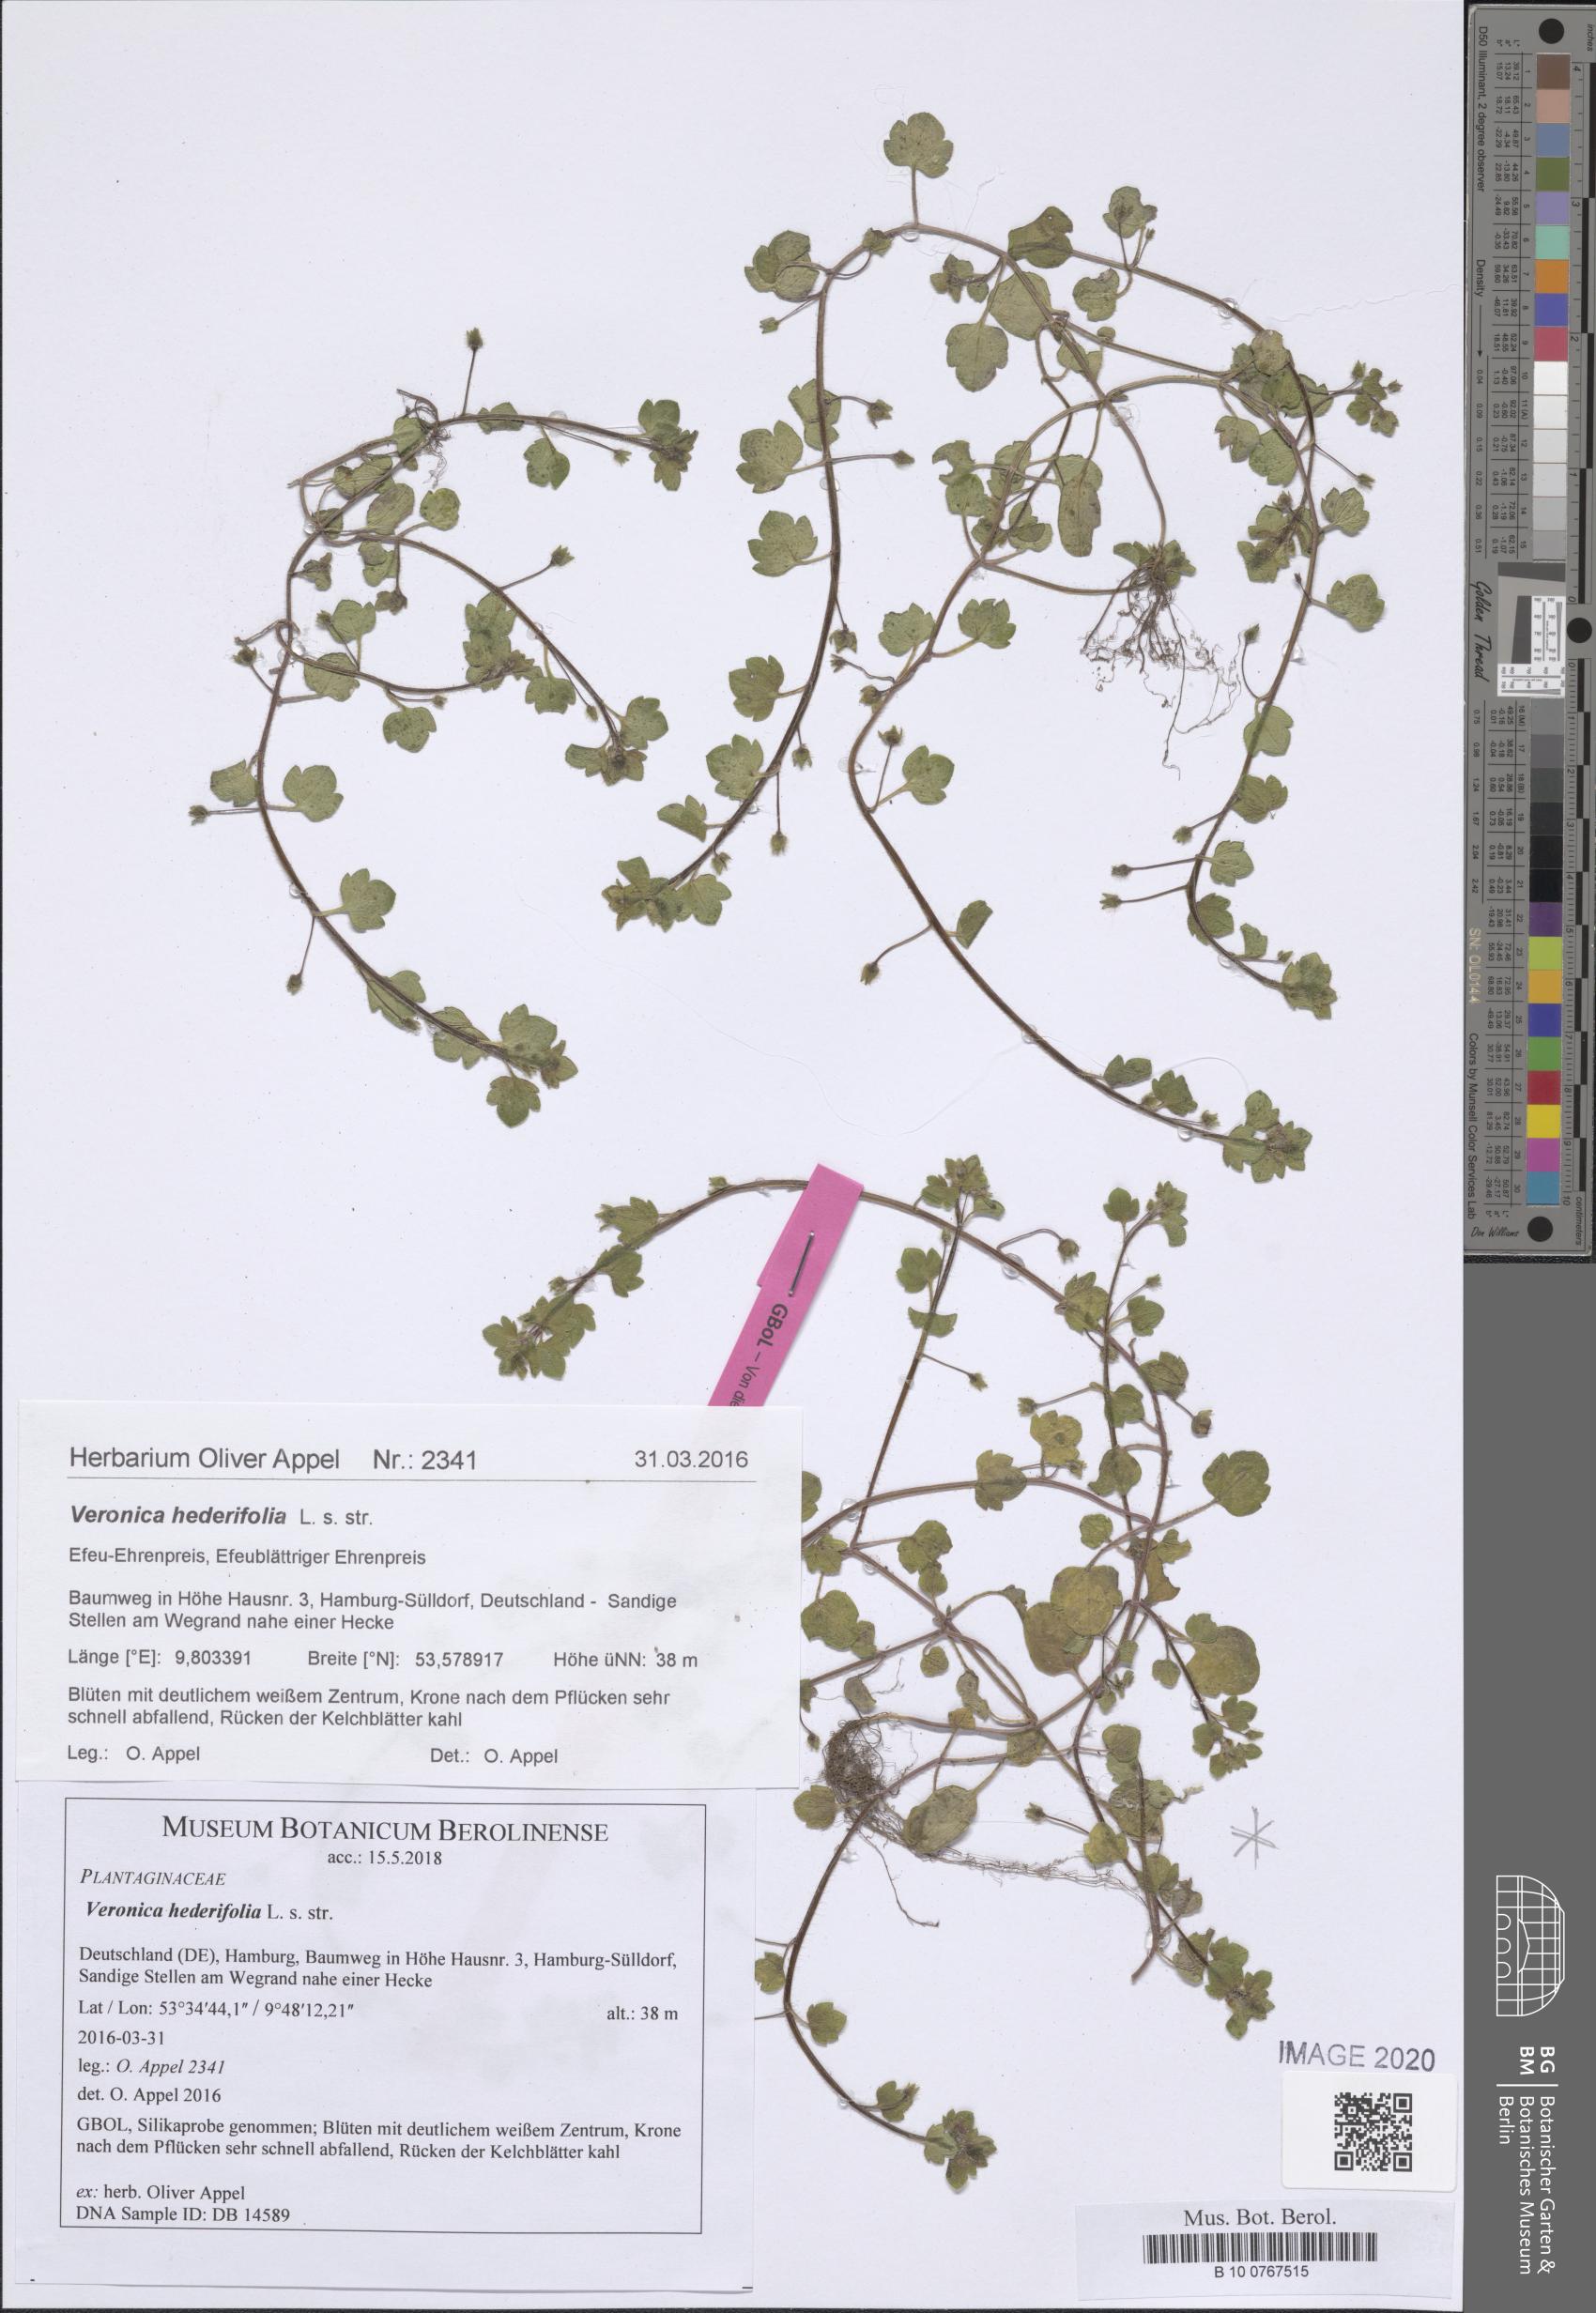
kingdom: Plantae
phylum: Tracheophyta
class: Magnoliopsida
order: Lamiales
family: Plantaginaceae
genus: Veronica
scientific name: Veronica hederifolia
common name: Ivy-leaved speedwell
